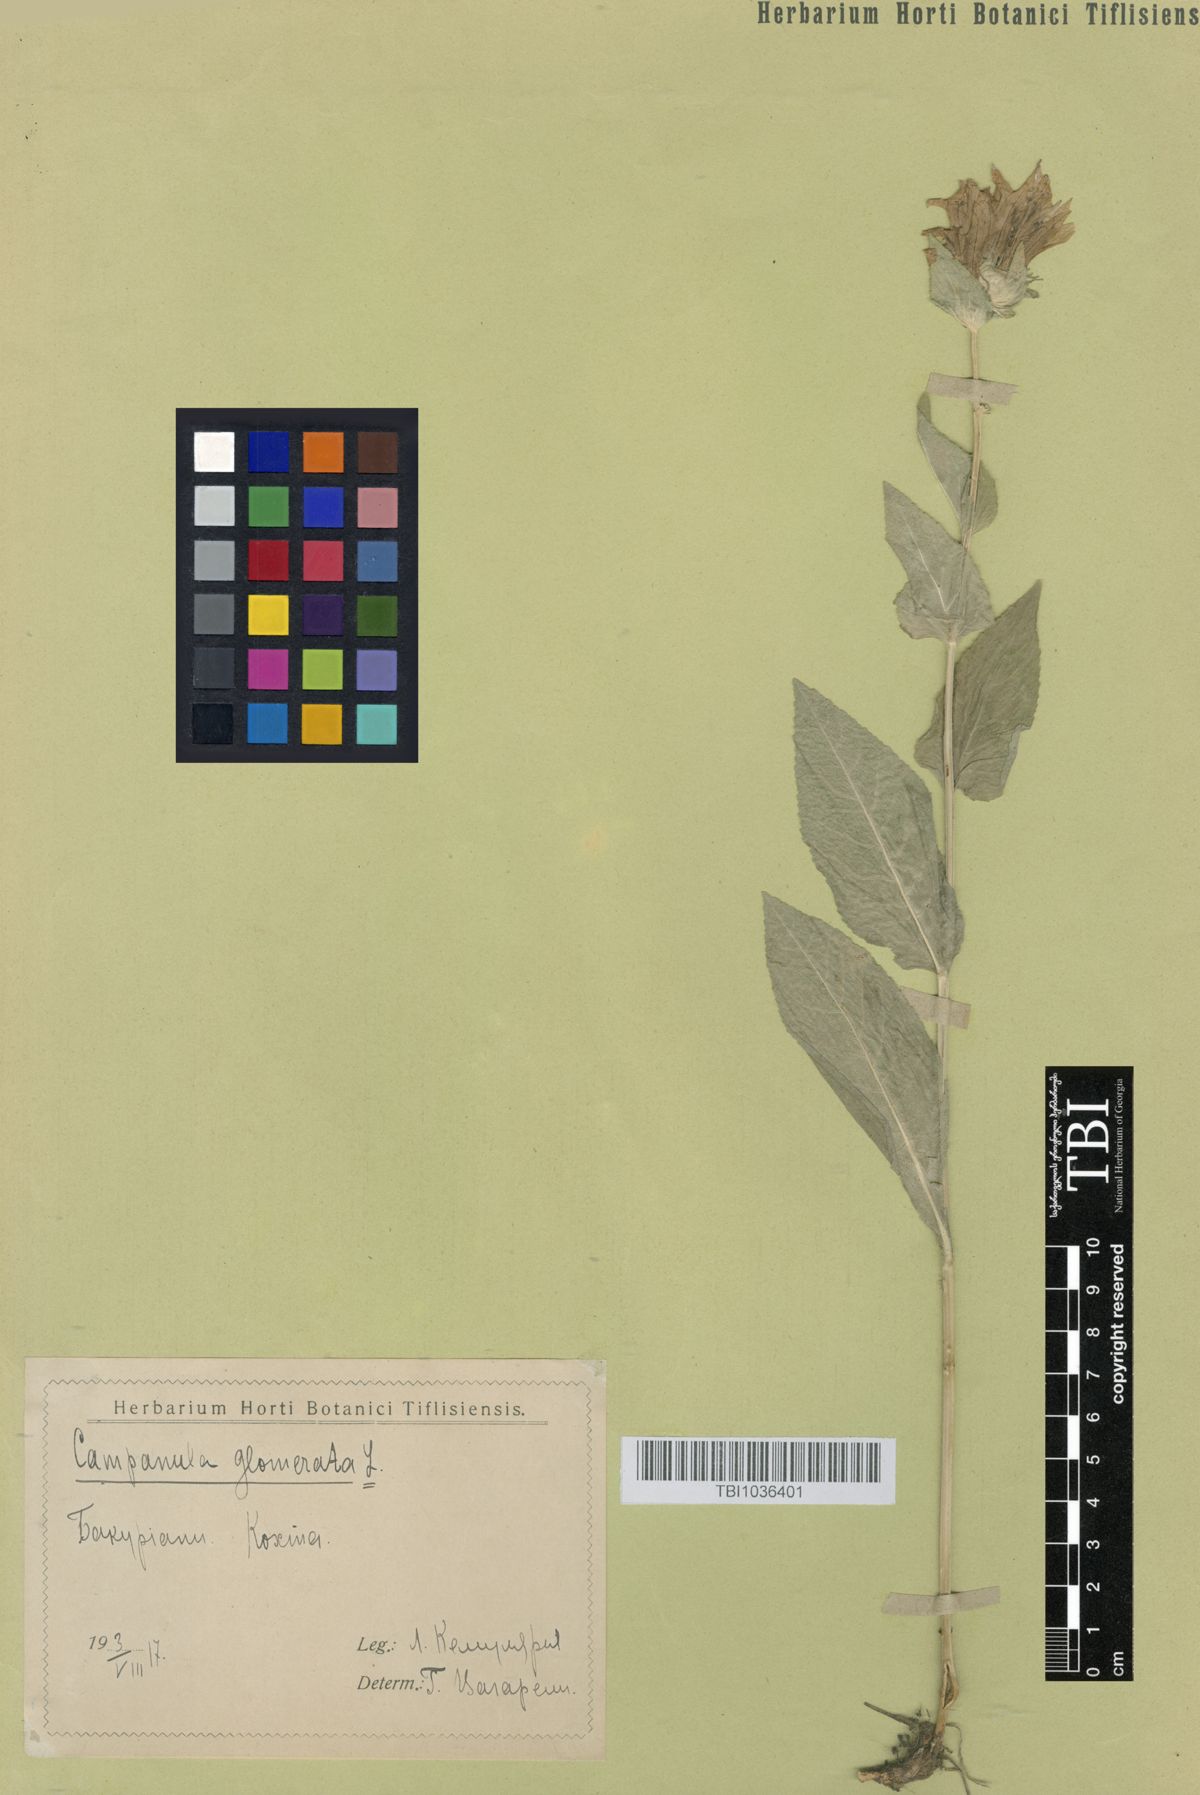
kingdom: Plantae
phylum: Tracheophyta
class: Magnoliopsida
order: Asterales
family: Campanulaceae
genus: Campanula
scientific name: Campanula glomerata
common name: Clustered bellflower
